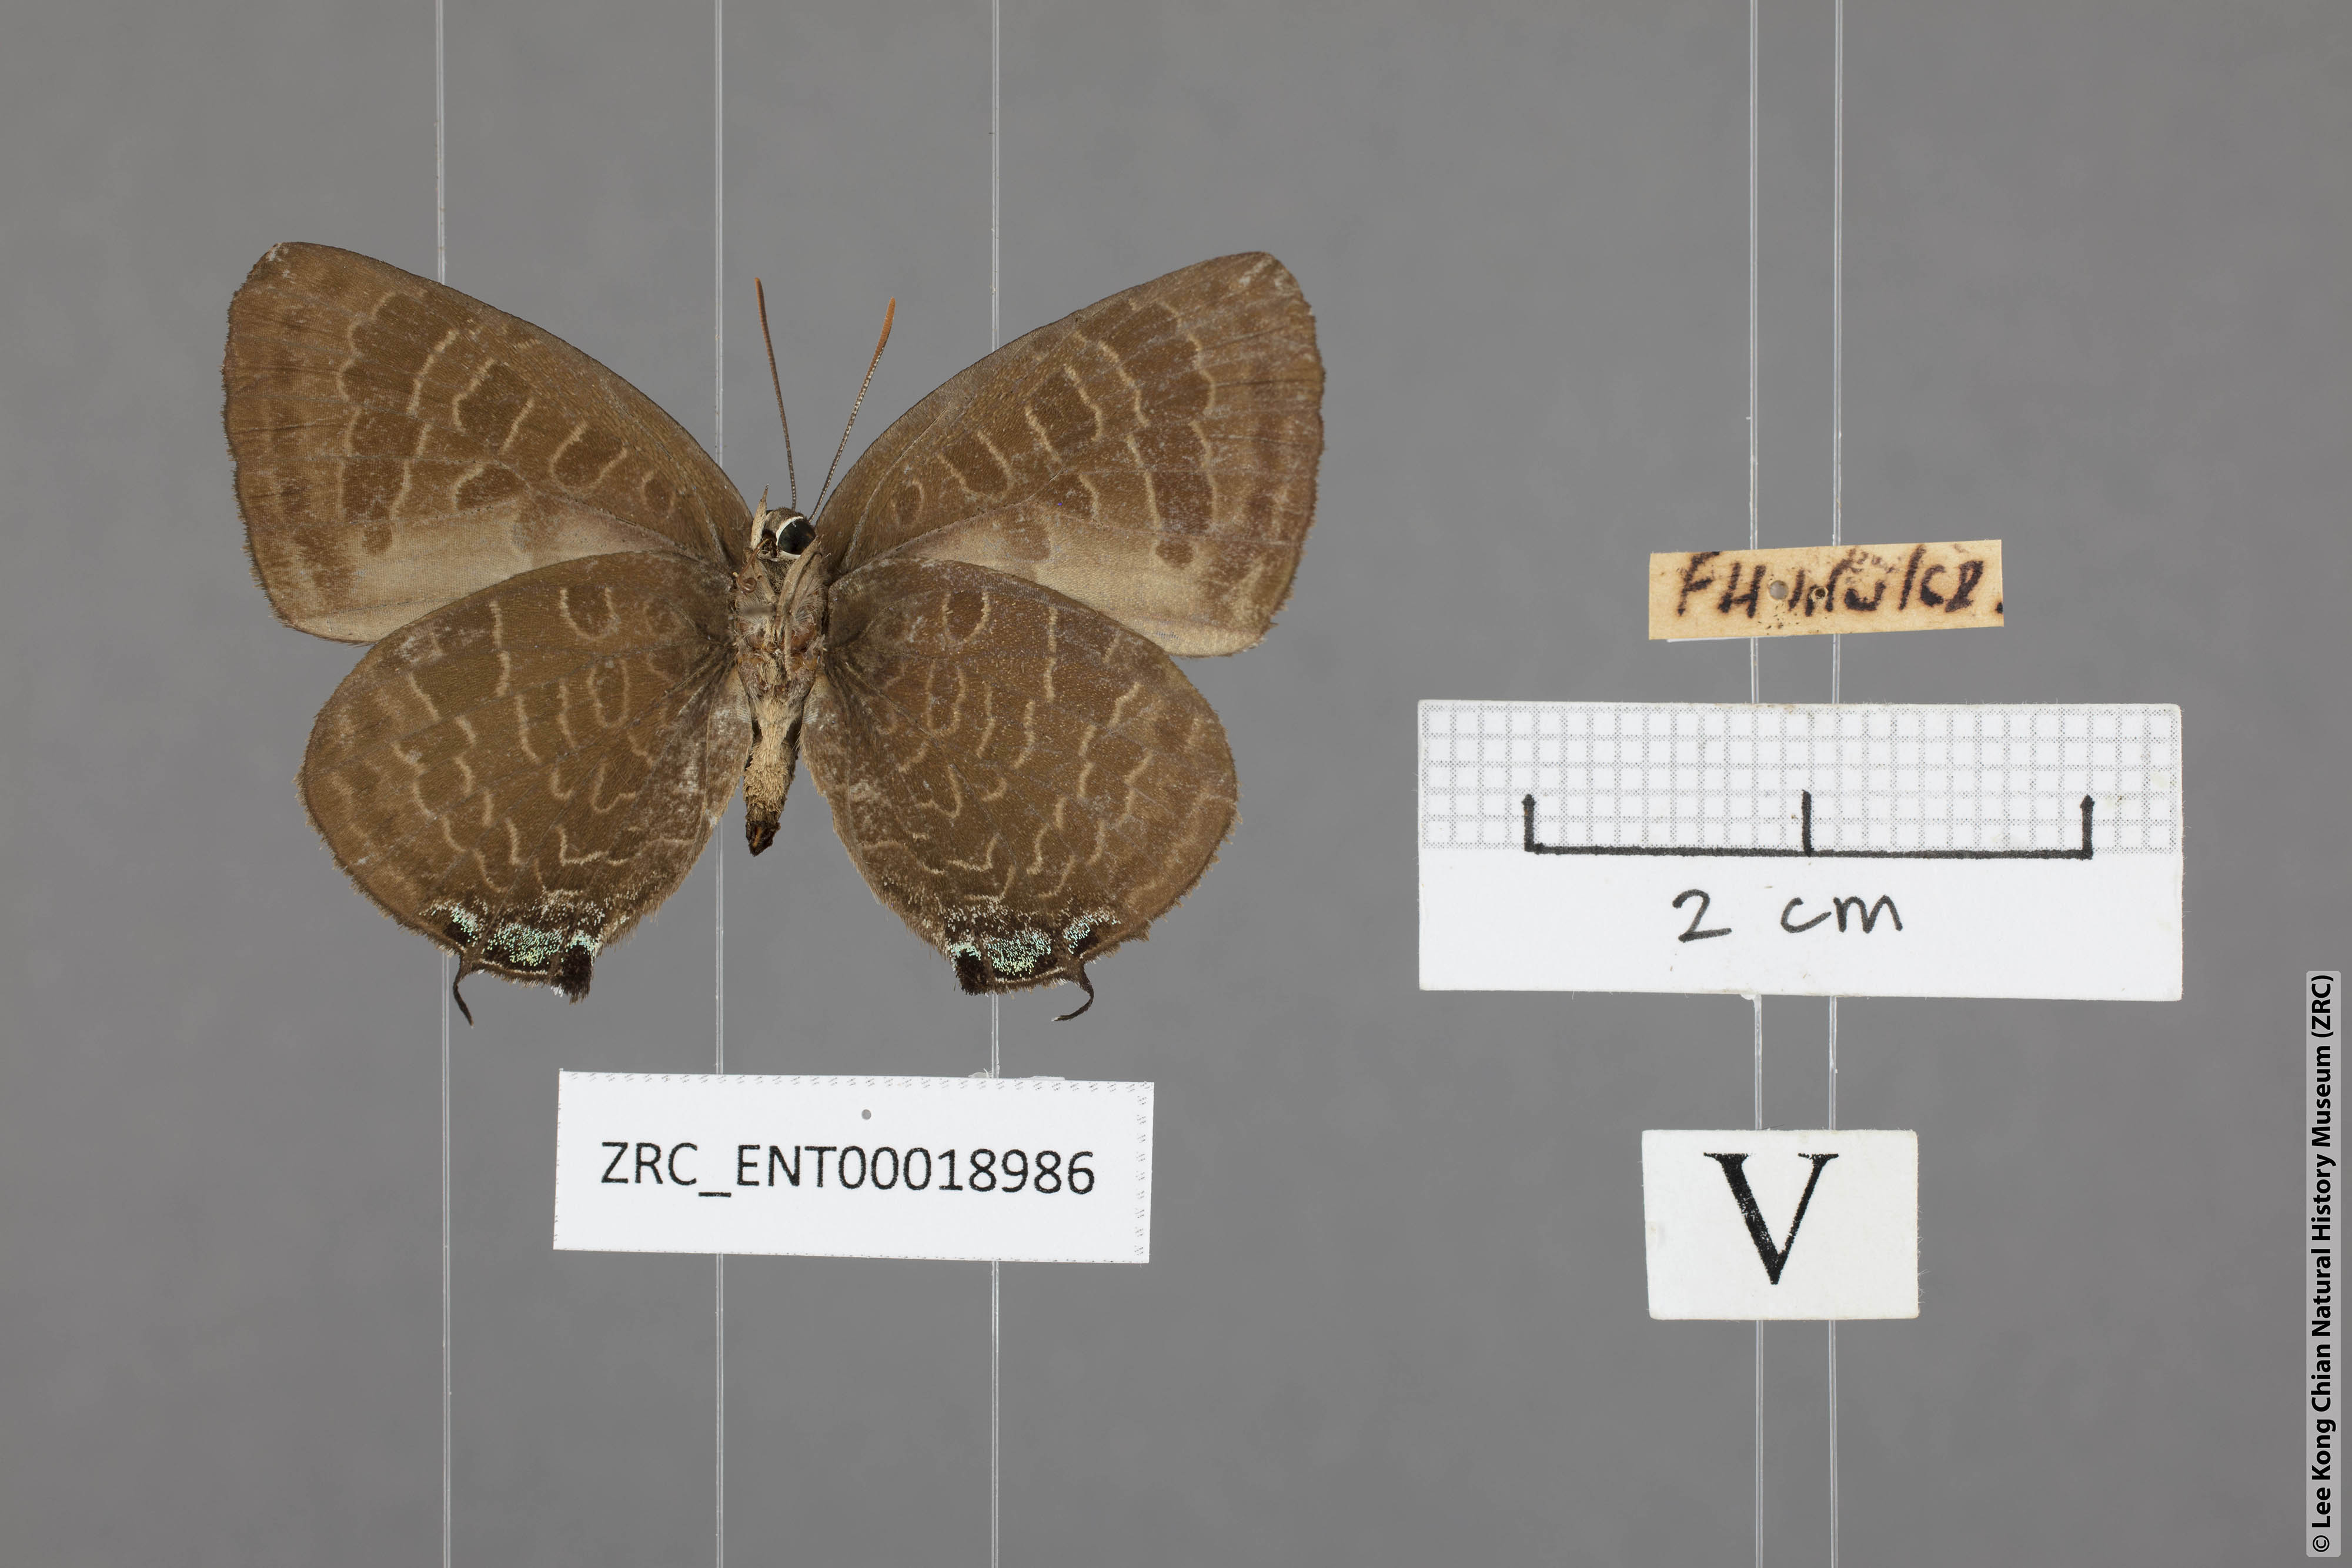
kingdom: Animalia
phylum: Arthropoda
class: Insecta
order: Lepidoptera
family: Lycaenidae
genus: Arhopala
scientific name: Arhopala ace
